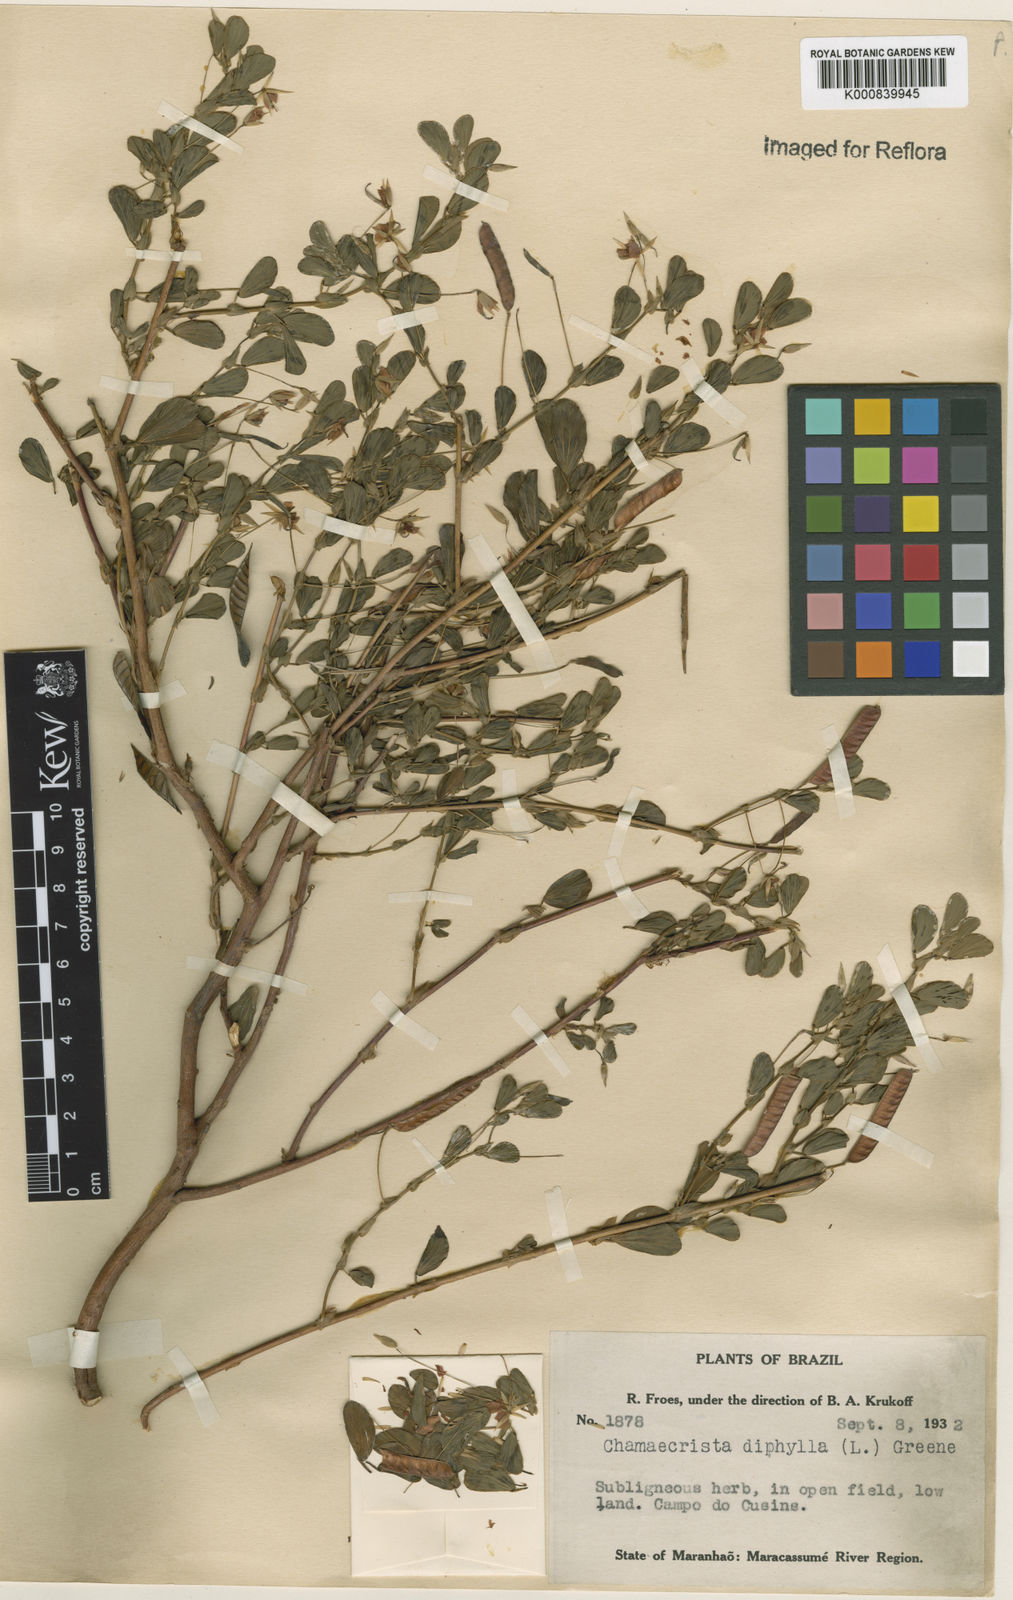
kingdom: Plantae
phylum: Tracheophyta
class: Magnoliopsida
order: Fabales
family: Fabaceae
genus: Chamaecrista
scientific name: Chamaecrista diphylla
